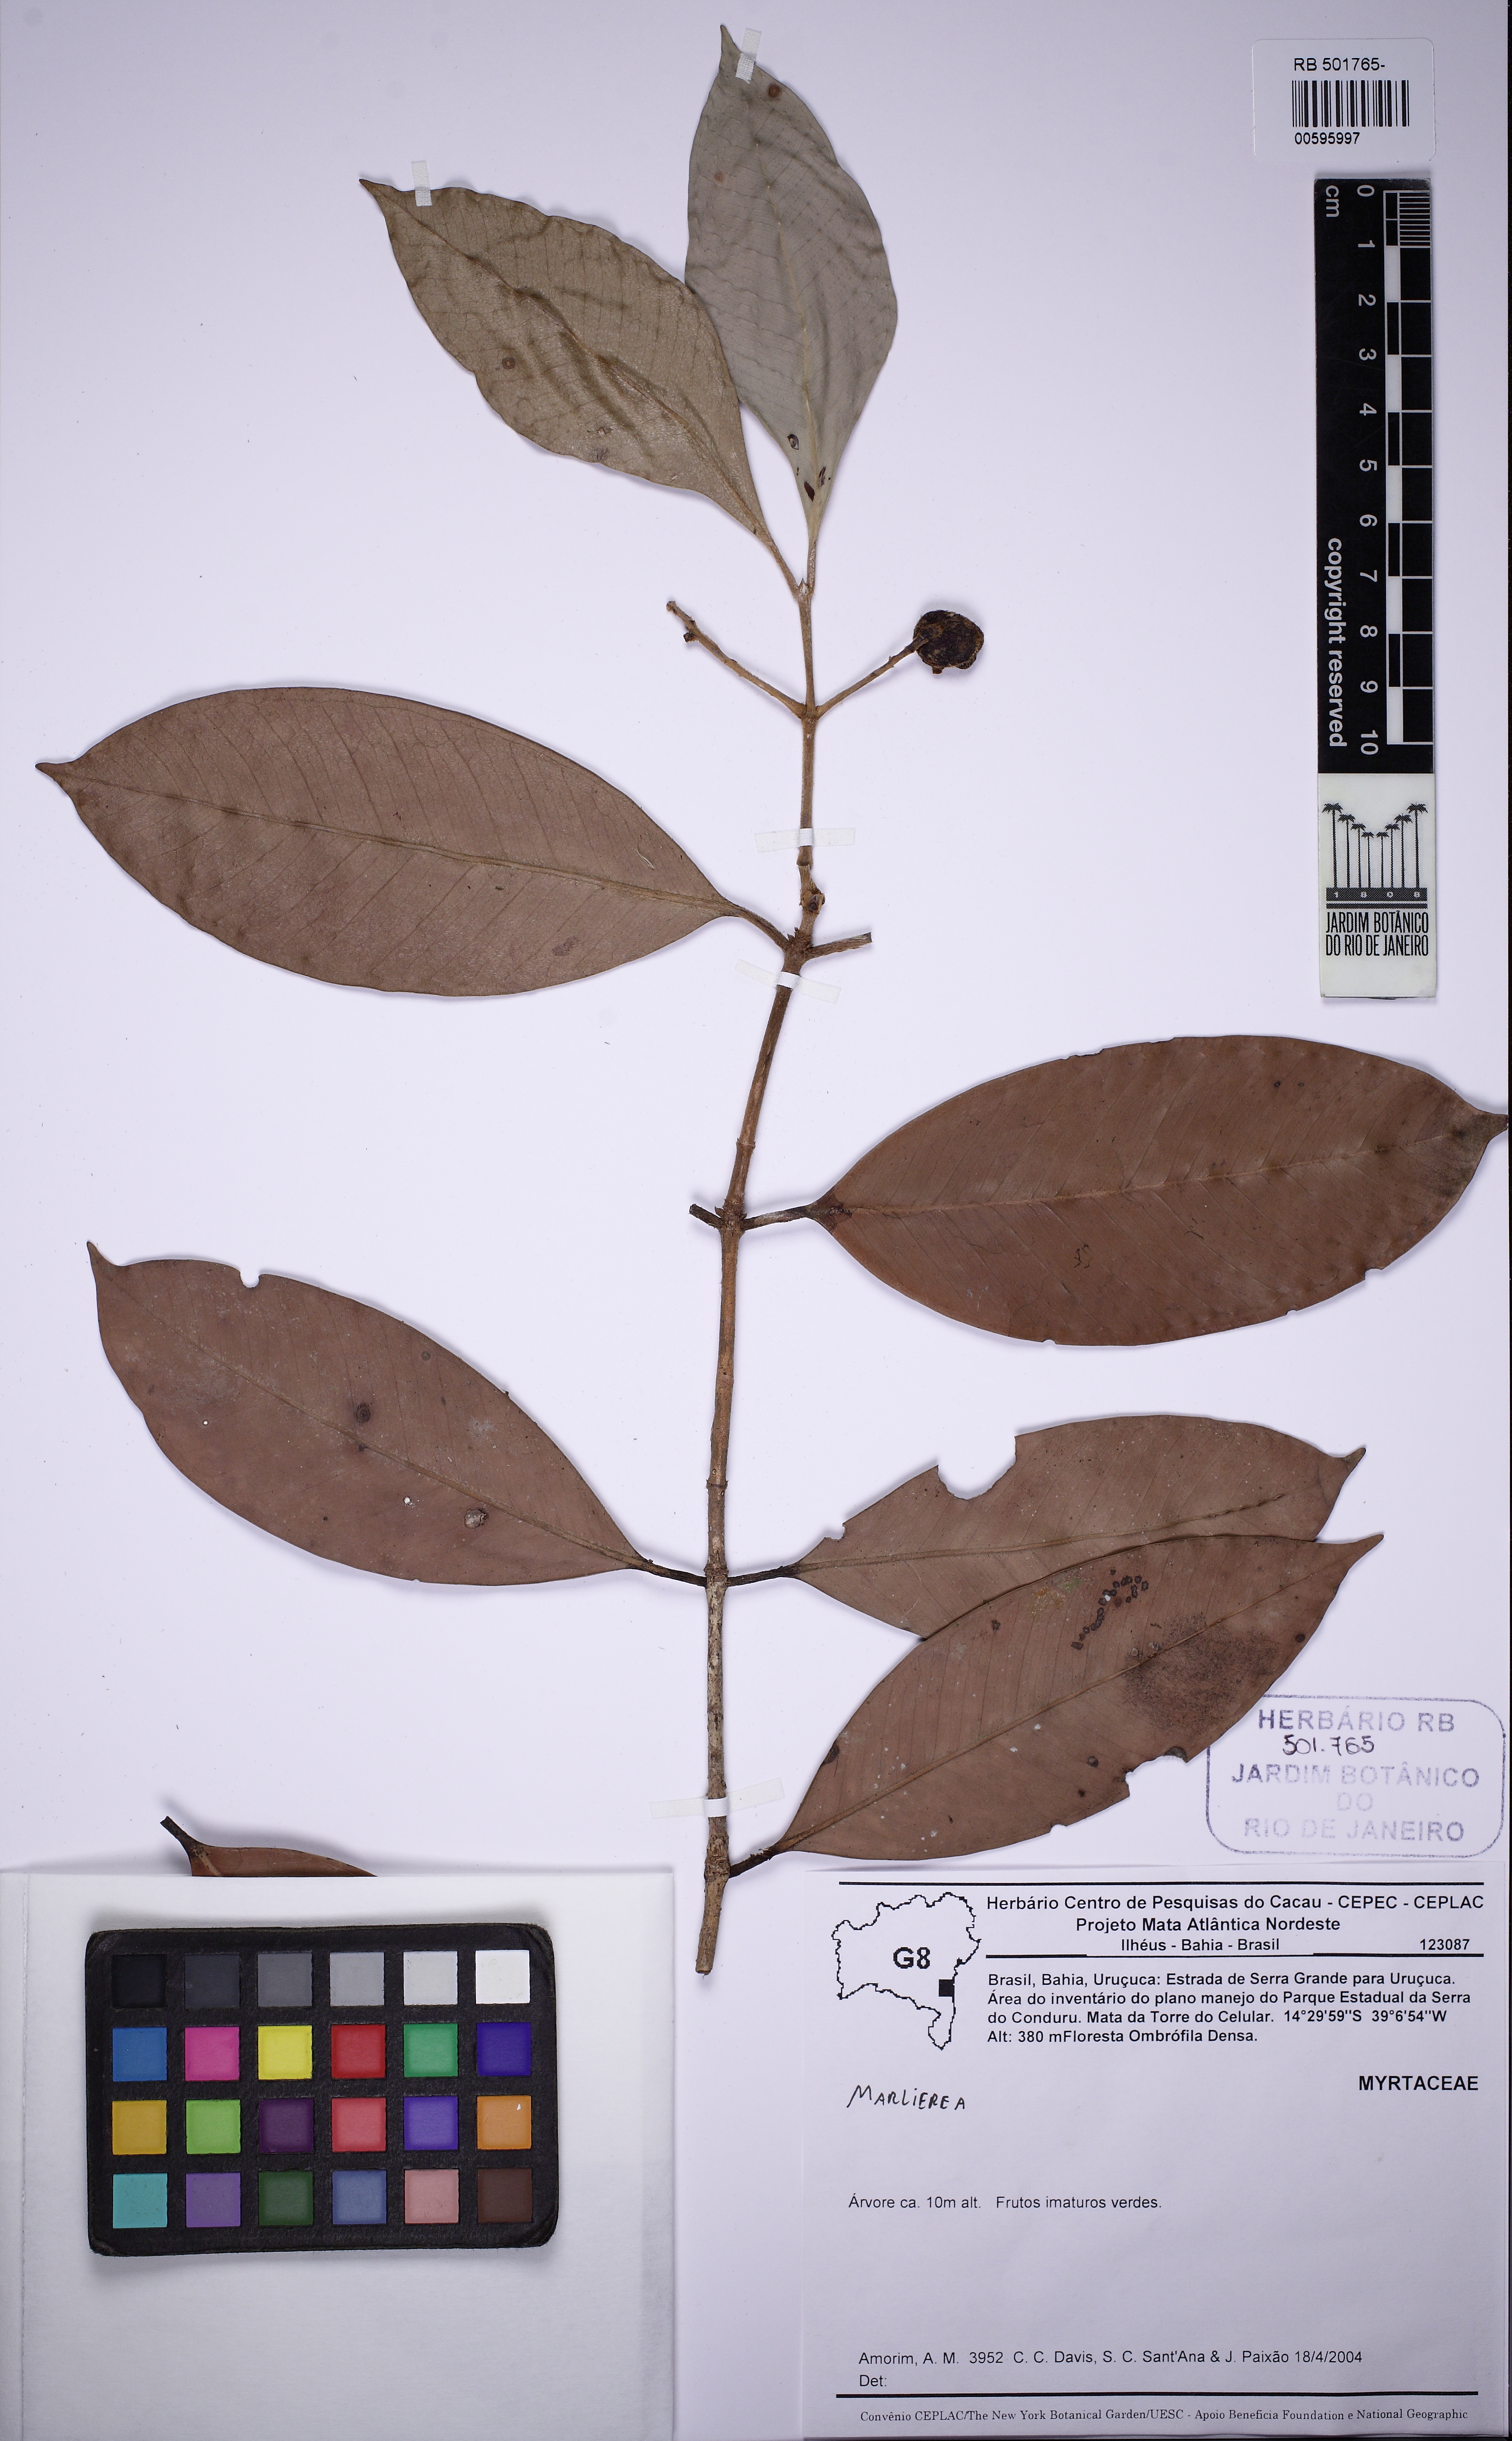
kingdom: Plantae
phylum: Tracheophyta
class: Magnoliopsida
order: Myrtales
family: Myrtaceae
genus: Marlierea
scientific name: Marlierea
